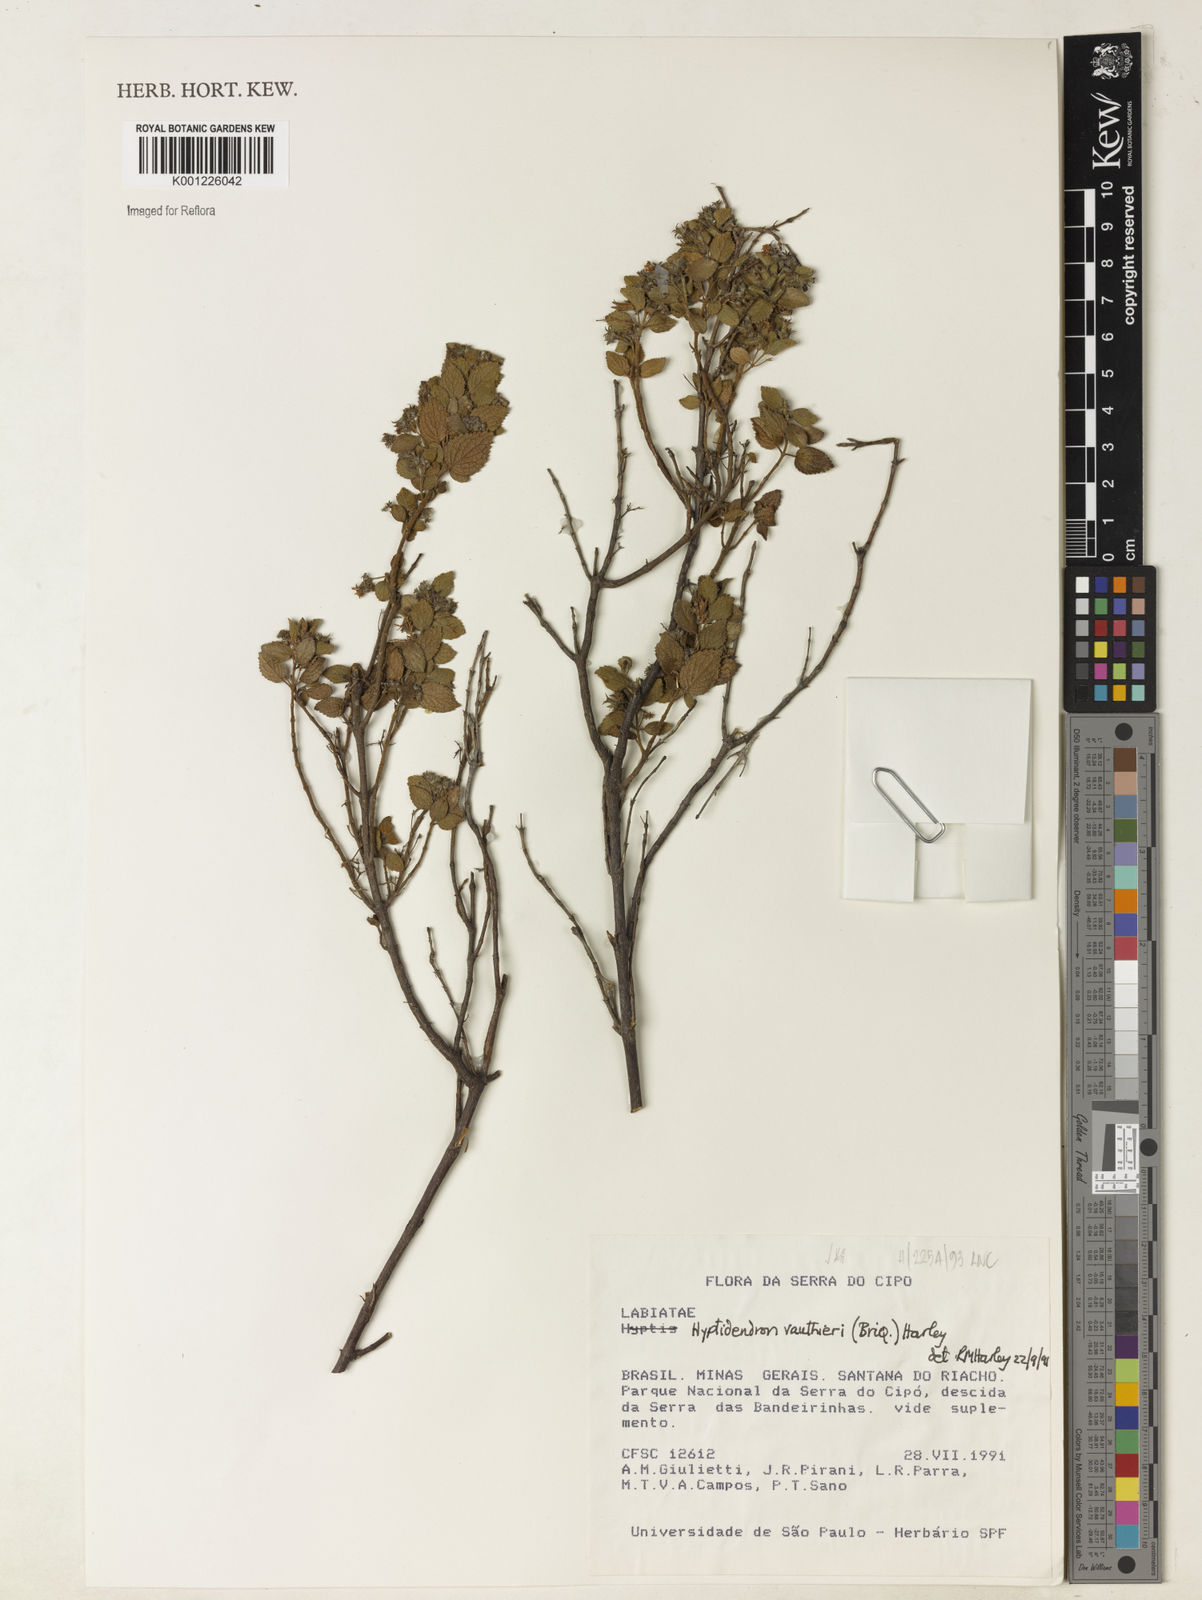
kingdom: Plantae
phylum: Tracheophyta
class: Magnoliopsida
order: Lamiales
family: Lamiaceae
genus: Hyptidendron
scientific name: Hyptidendron vauthieri
